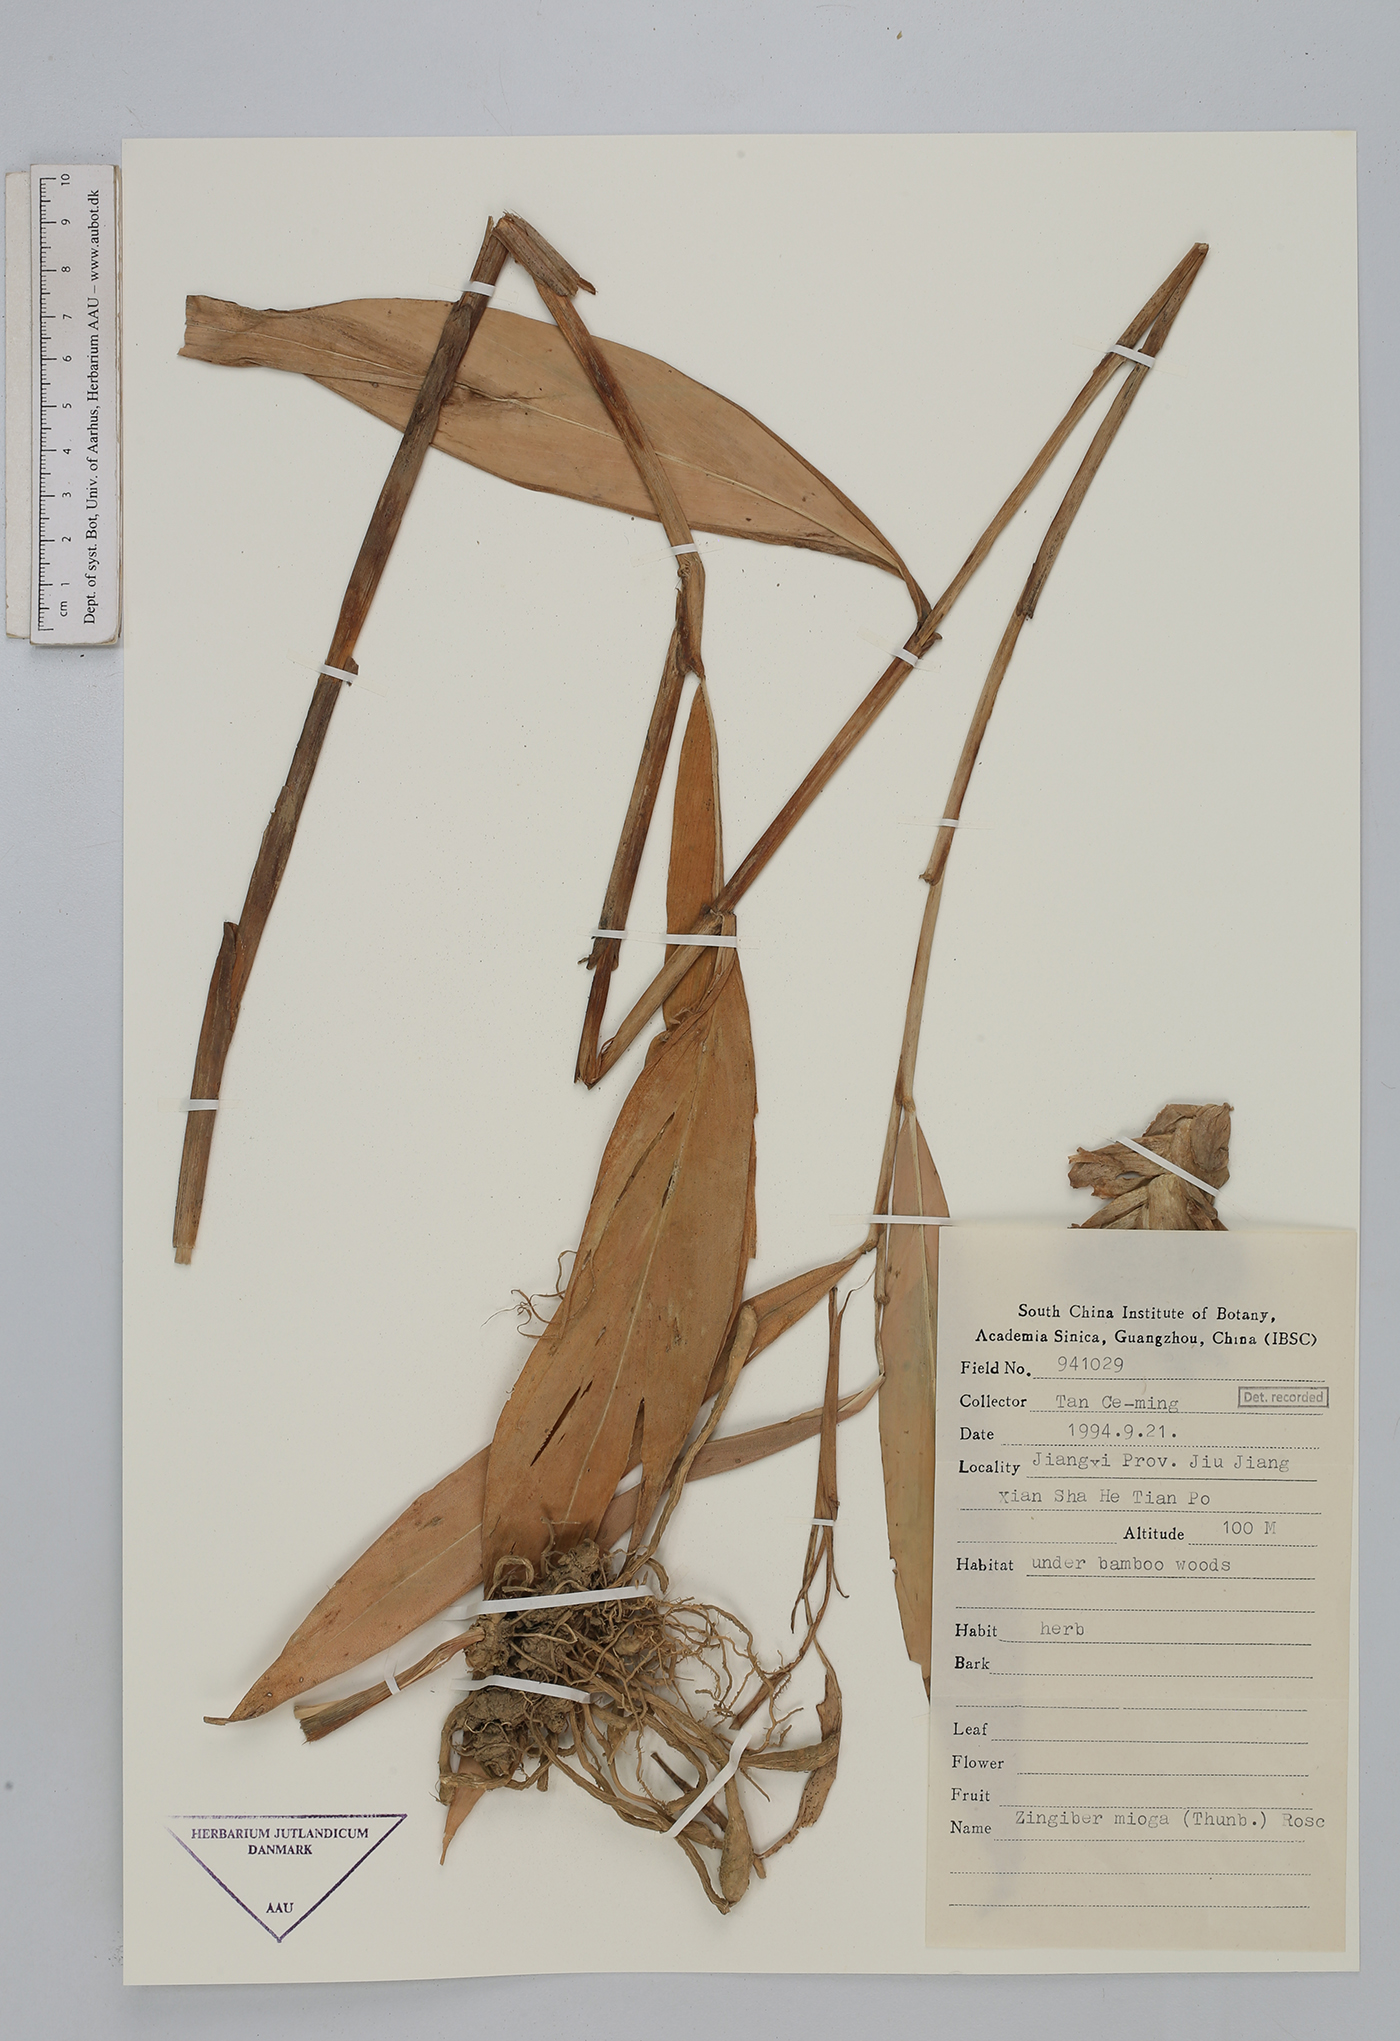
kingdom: Plantae
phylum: Tracheophyta
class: Liliopsida
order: Zingiberales
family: Zingiberaceae
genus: Zingiber
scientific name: Zingiber mioga
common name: Japanese ginger
